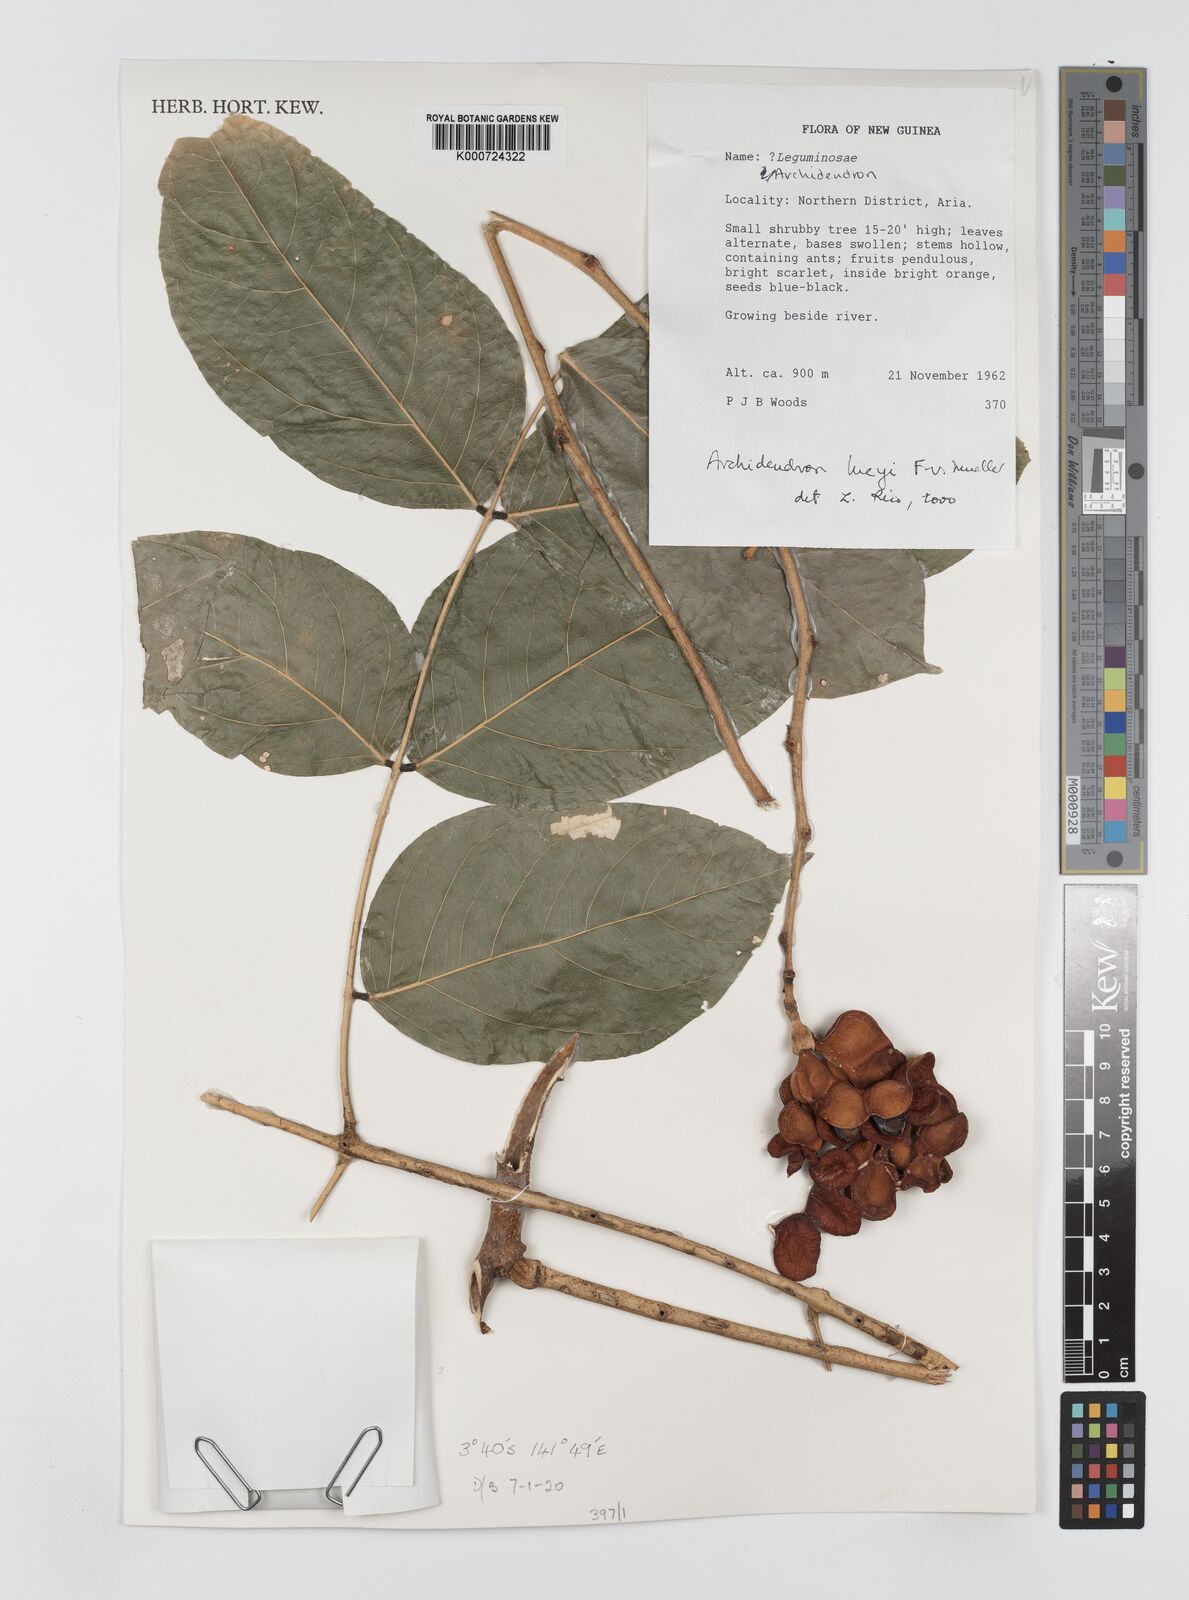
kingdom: Plantae
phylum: Tracheophyta
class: Magnoliopsida
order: Fabales
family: Fabaceae
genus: Archidendron
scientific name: Archidendron lucyi
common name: Scarlet bean
